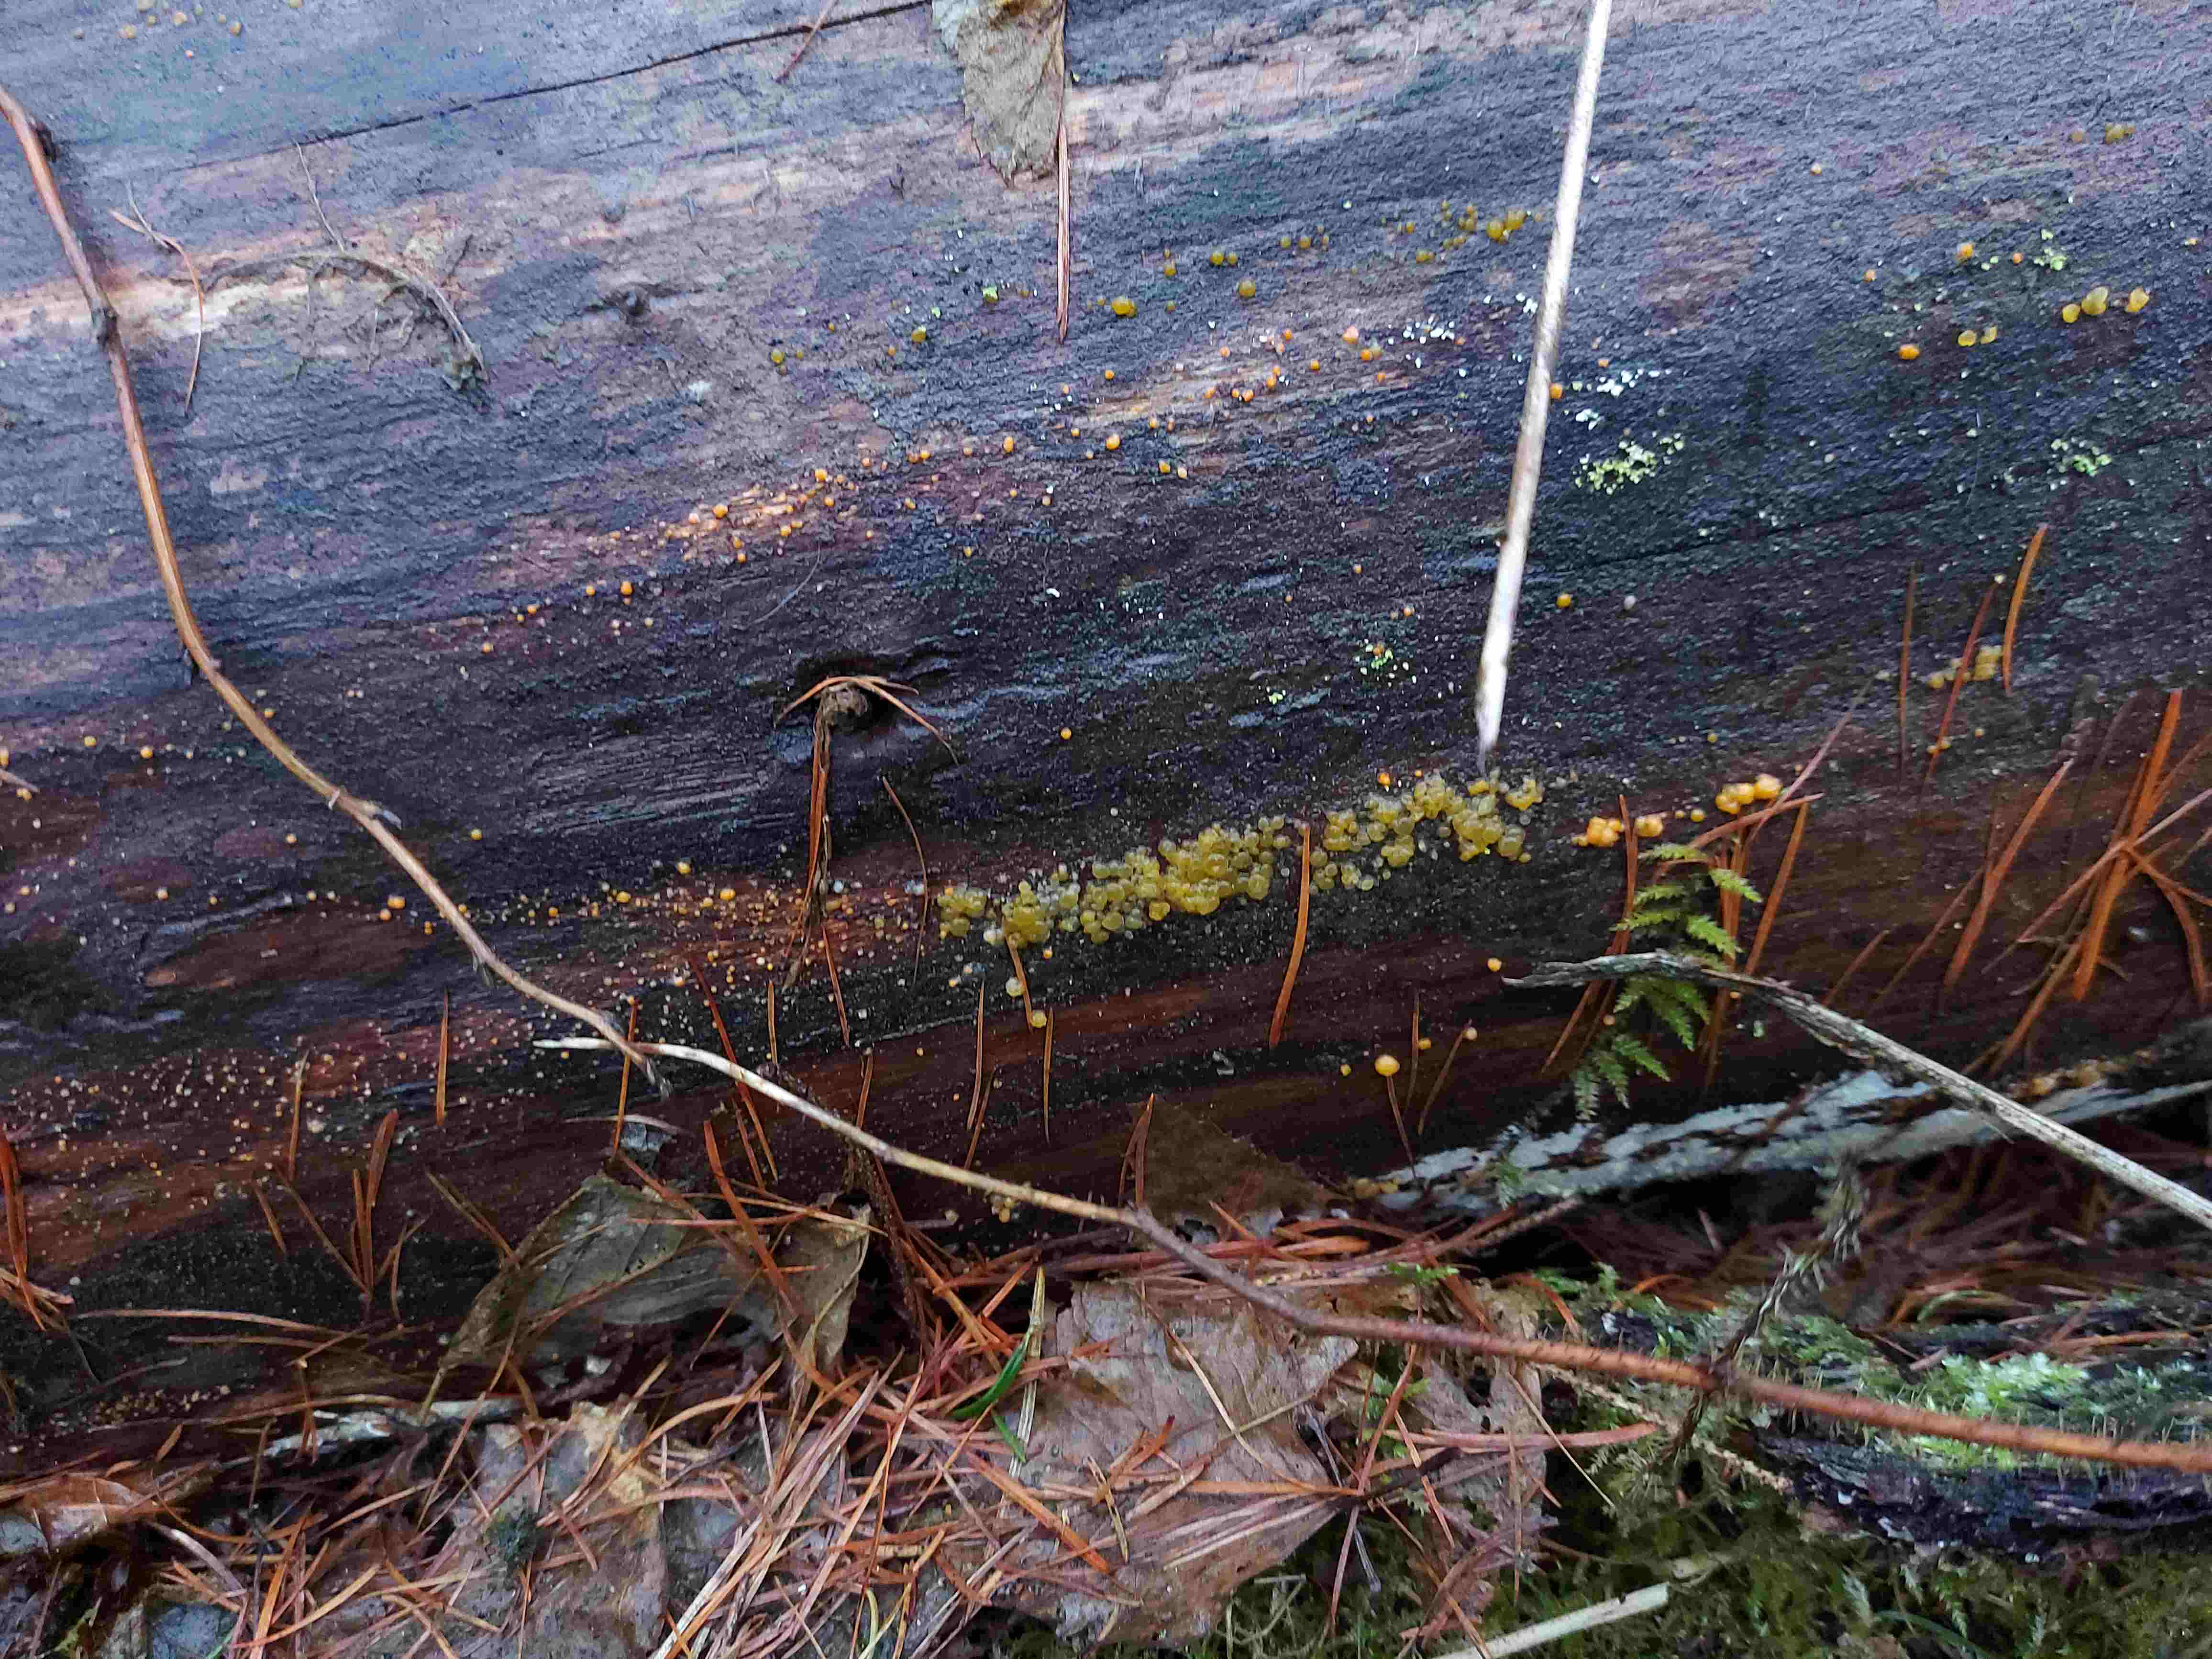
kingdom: Fungi
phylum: Basidiomycota
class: Dacrymycetes
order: Dacrymycetales
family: Dacrymycetaceae
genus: Dacrymyces
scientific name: Dacrymyces stillatus
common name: almindelig tåresvamp
